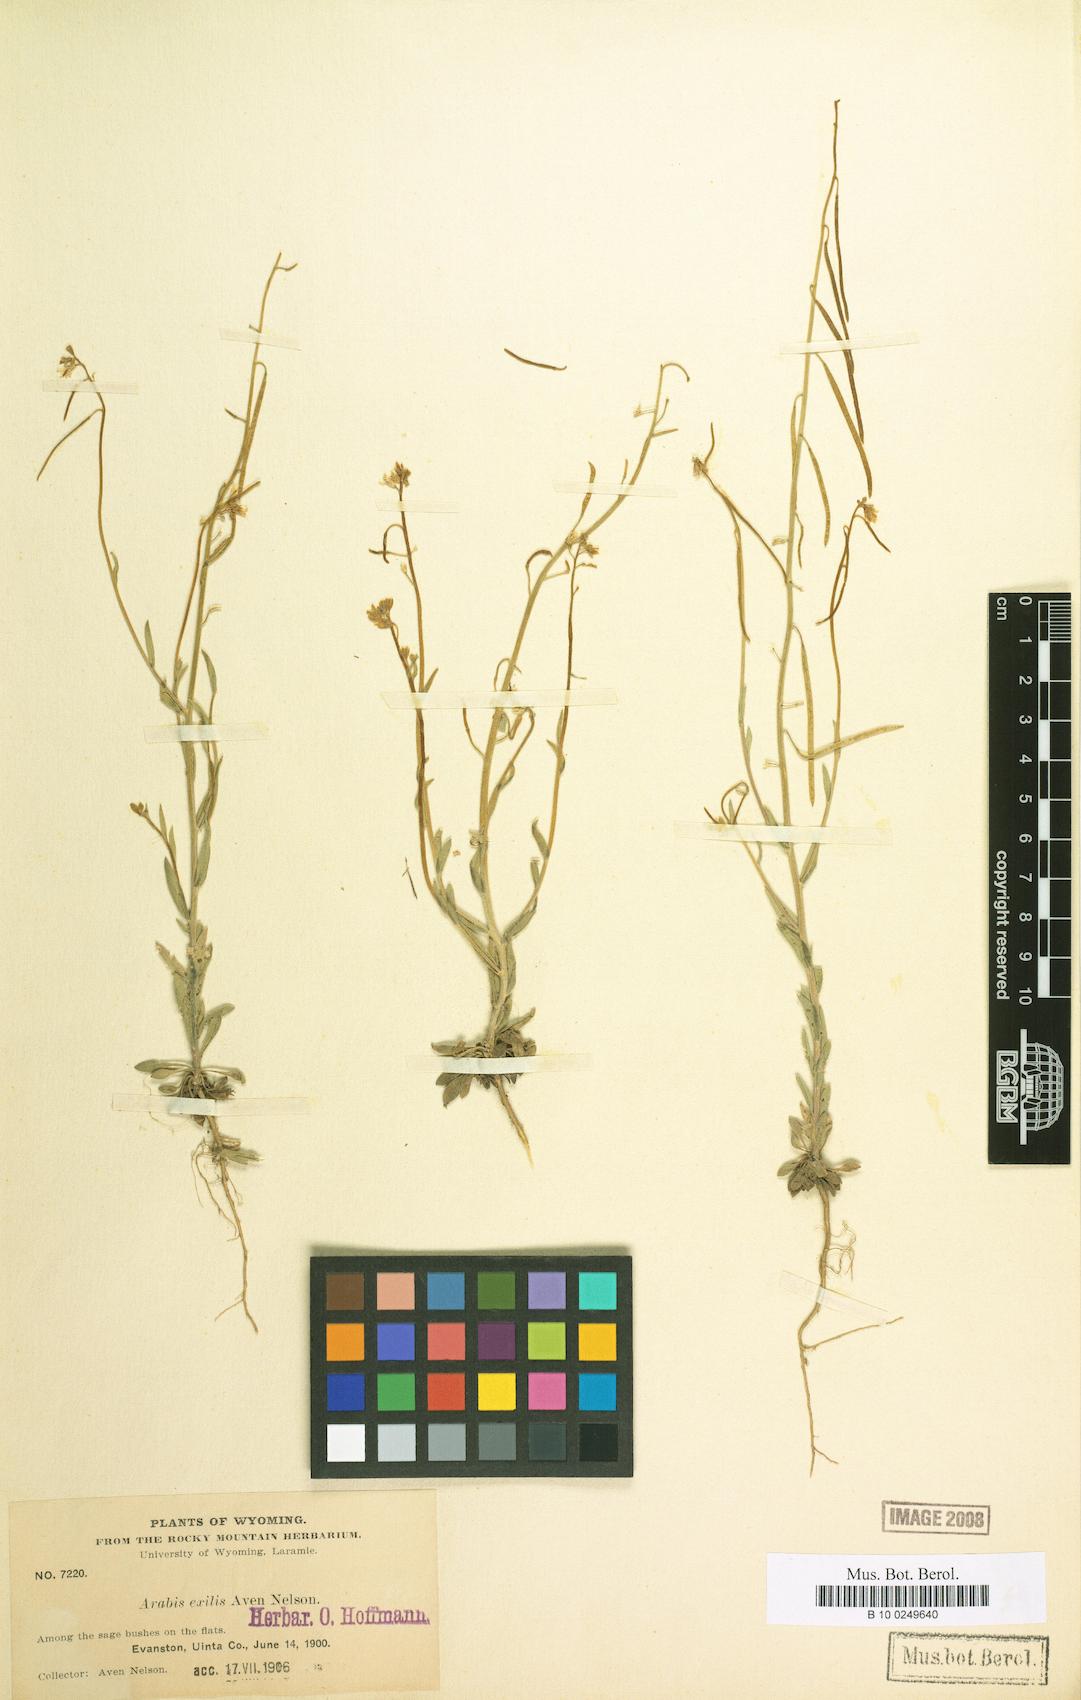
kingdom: Plantae
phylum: Tracheophyta
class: Magnoliopsida
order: Brassicales
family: Brassicaceae
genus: Boechera
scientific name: Boechera retrofracta
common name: Dangling suncress
